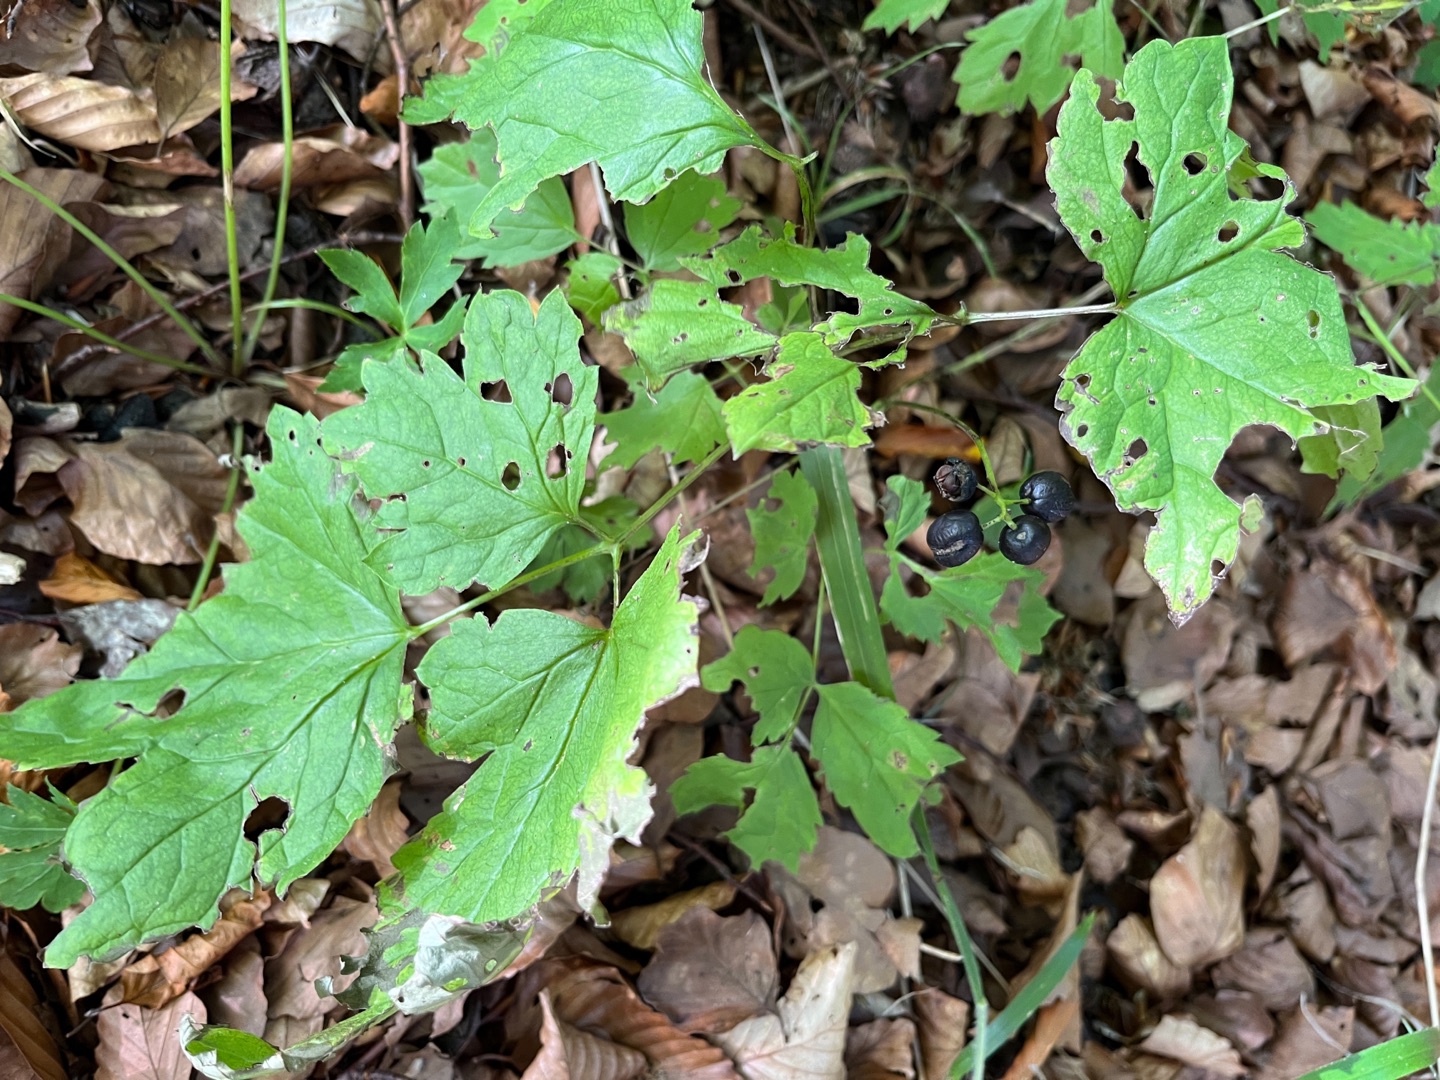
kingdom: Plantae
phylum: Tracheophyta
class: Magnoliopsida
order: Ranunculales
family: Ranunculaceae
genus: Actaea
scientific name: Actaea spicata
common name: Druemunke
